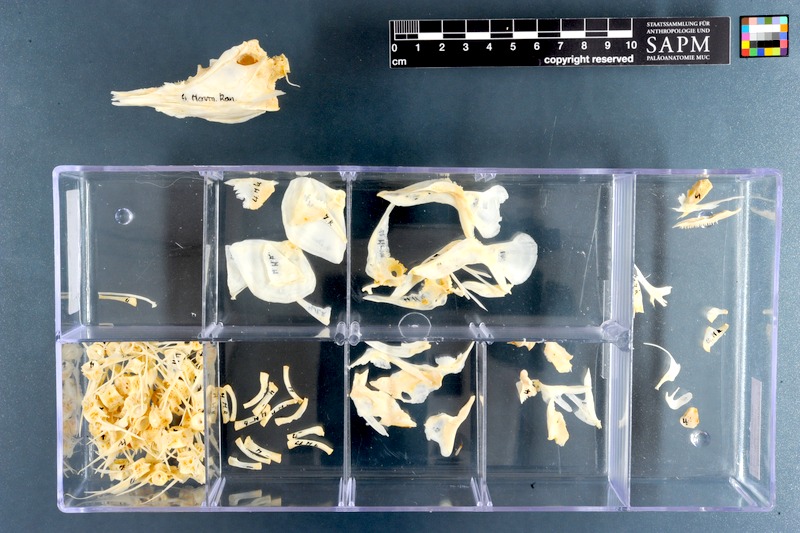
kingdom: Animalia
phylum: Chordata
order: Osteoglossiformes
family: Mormyridae
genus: Mormyrus
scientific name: Mormyrus kannume
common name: Elephant-snout fish
